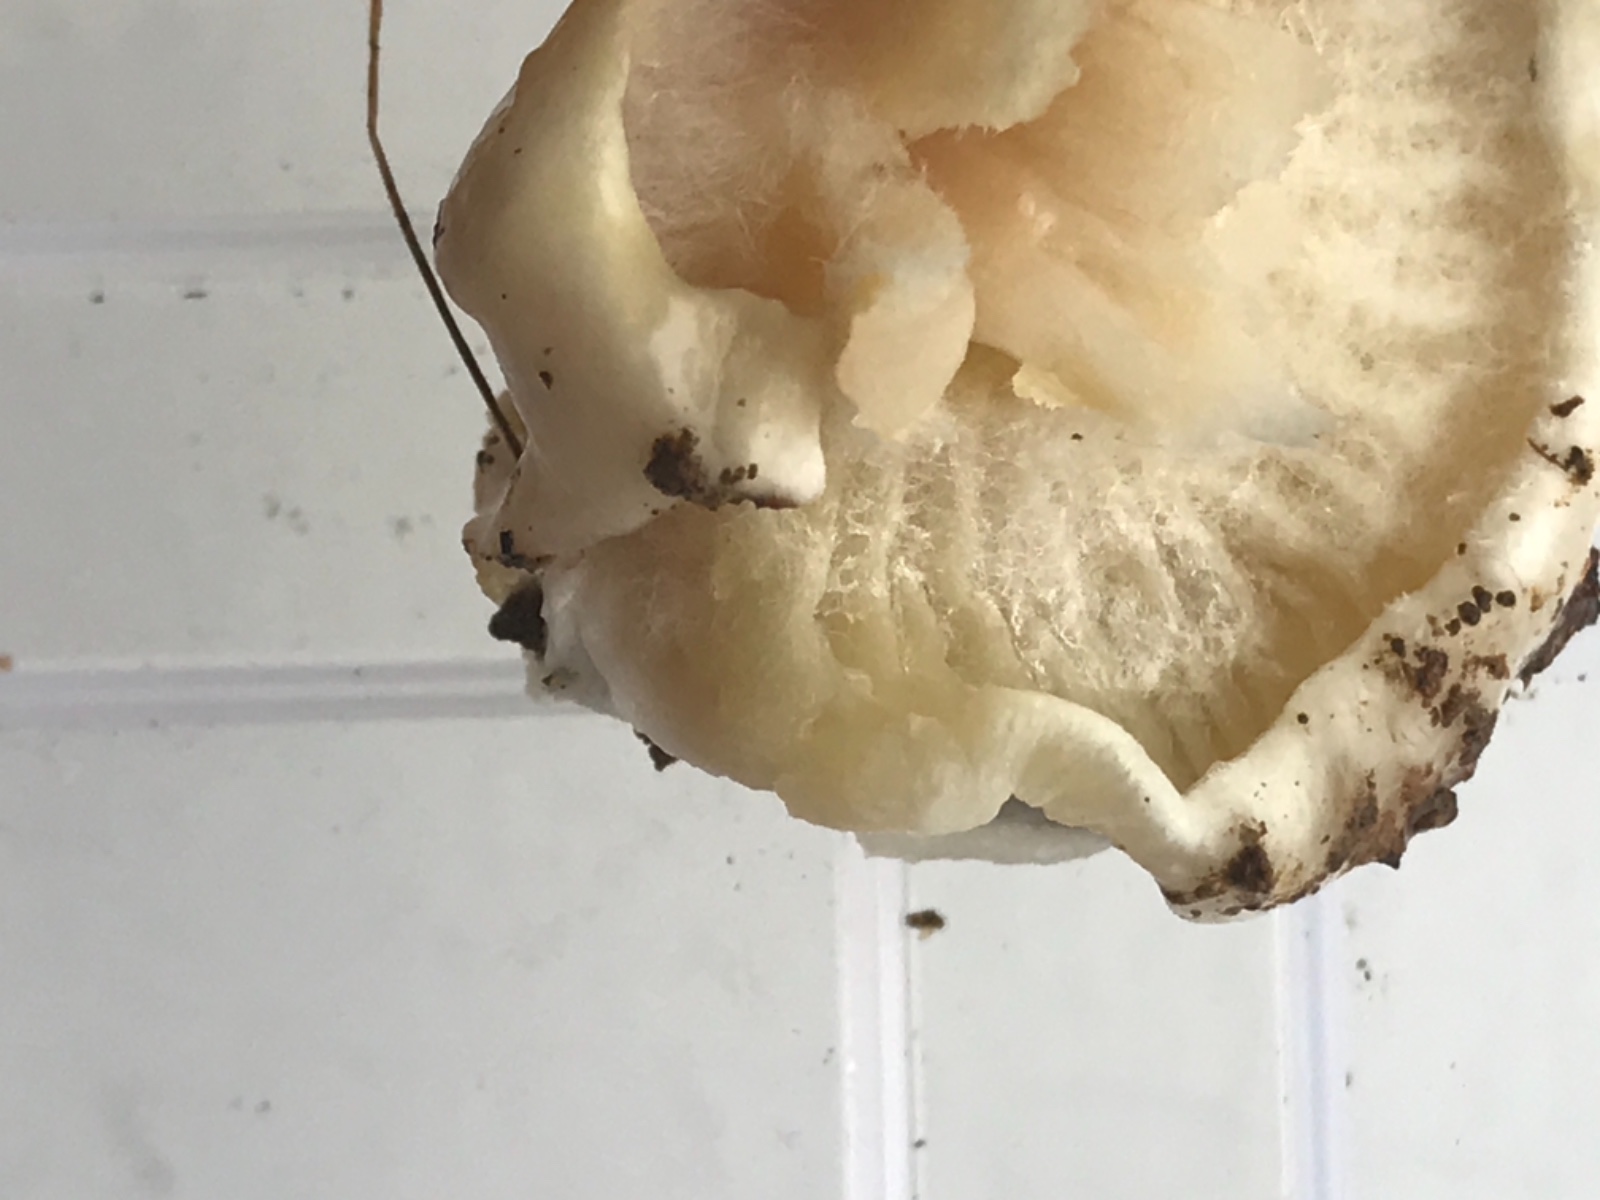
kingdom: Fungi
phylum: Basidiomycota
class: Agaricomycetes
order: Agaricales
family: Hygrophoraceae
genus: Hygrophorus
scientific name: Hygrophorus eburneus
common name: elfenbens-sneglehat
